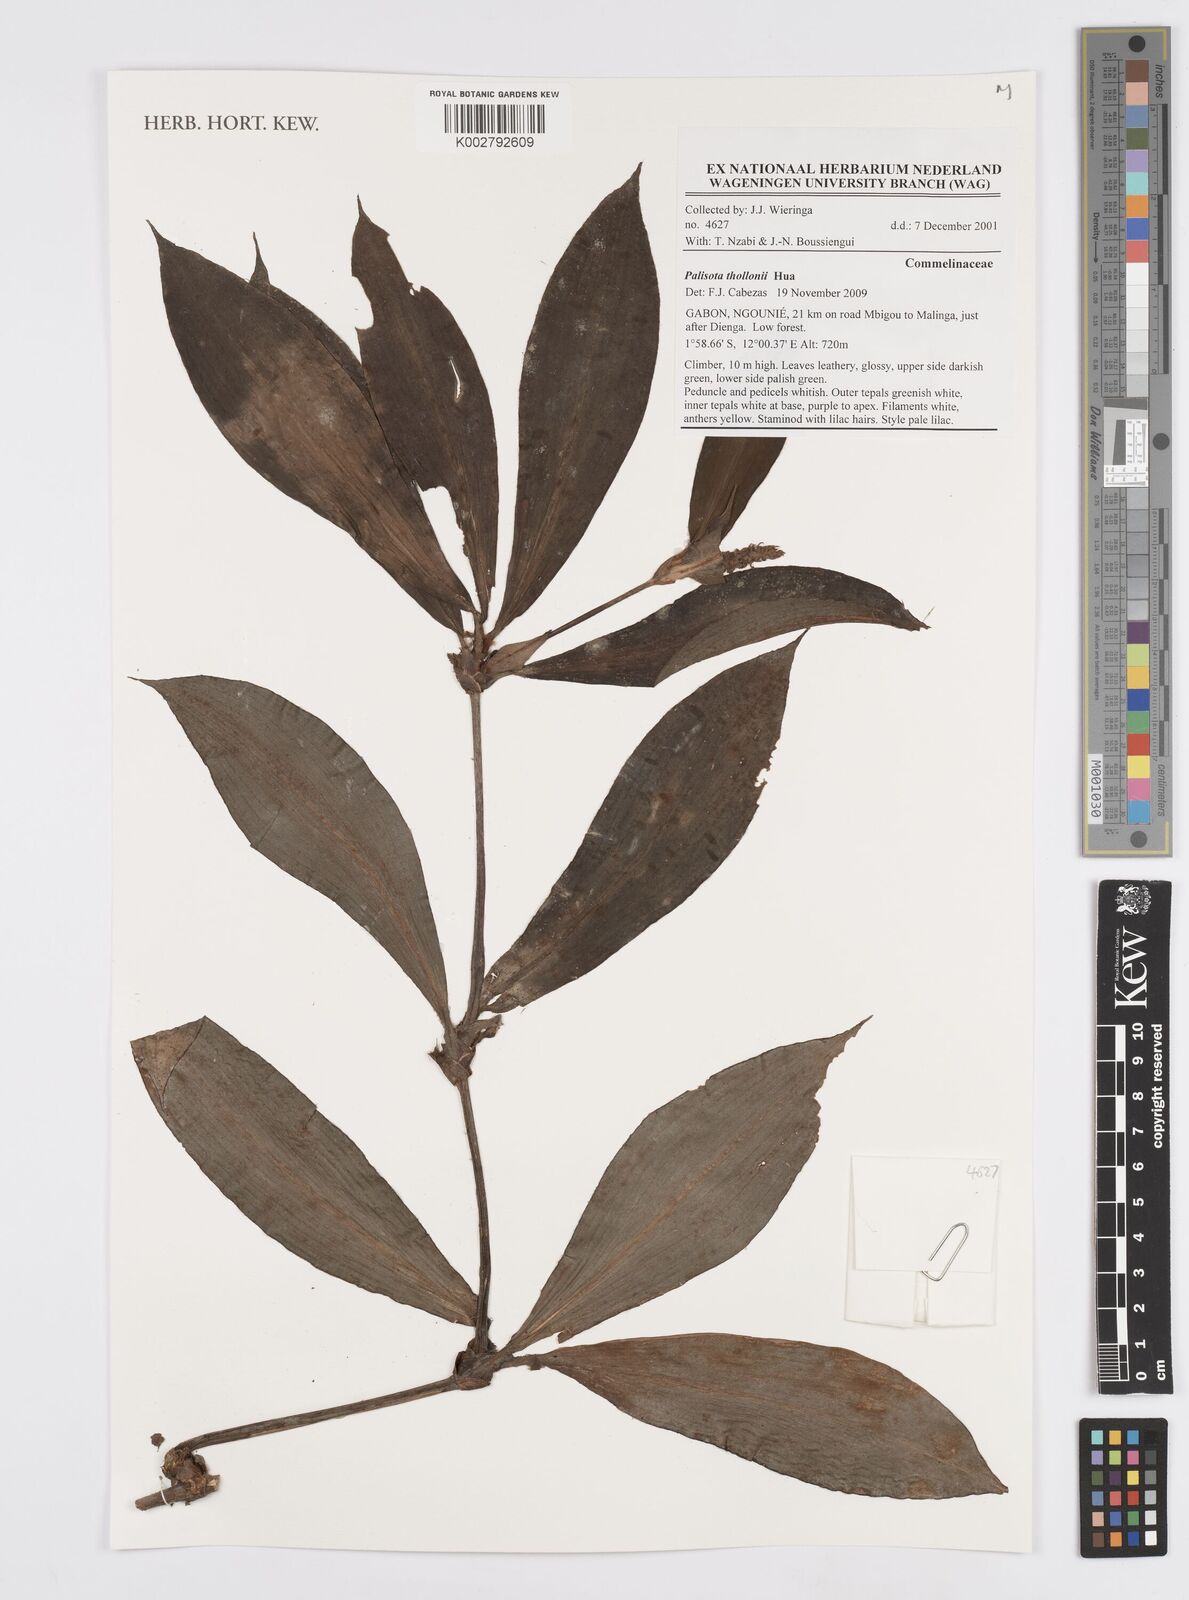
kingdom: Plantae
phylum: Tracheophyta
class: Liliopsida
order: Commelinales
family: Commelinaceae
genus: Palisota
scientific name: Palisota thollonii
